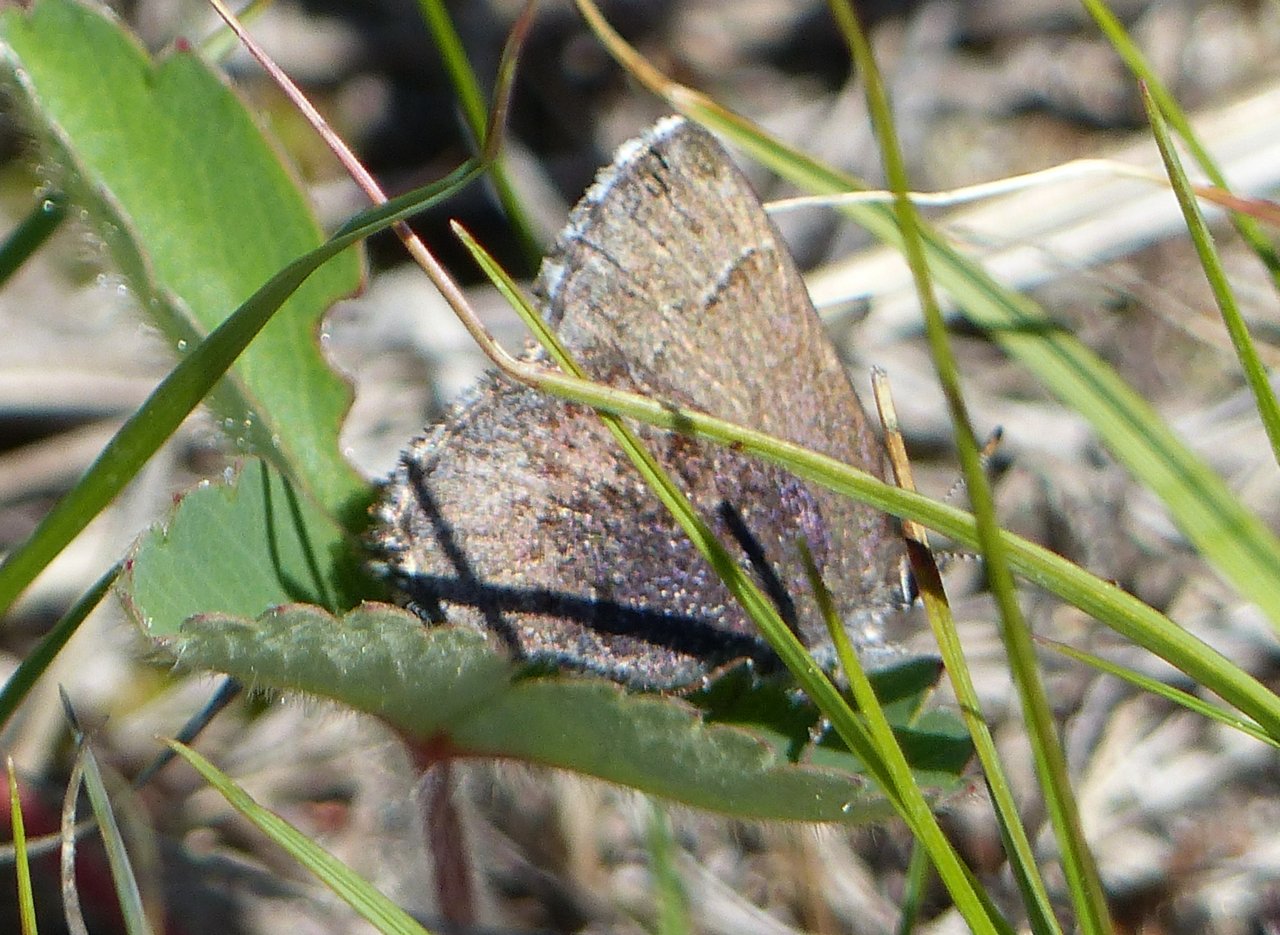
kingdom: Animalia
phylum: Arthropoda
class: Insecta
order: Lepidoptera
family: Lycaenidae
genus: Incisalia
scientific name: Incisalia irioides
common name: Brown Elfin
